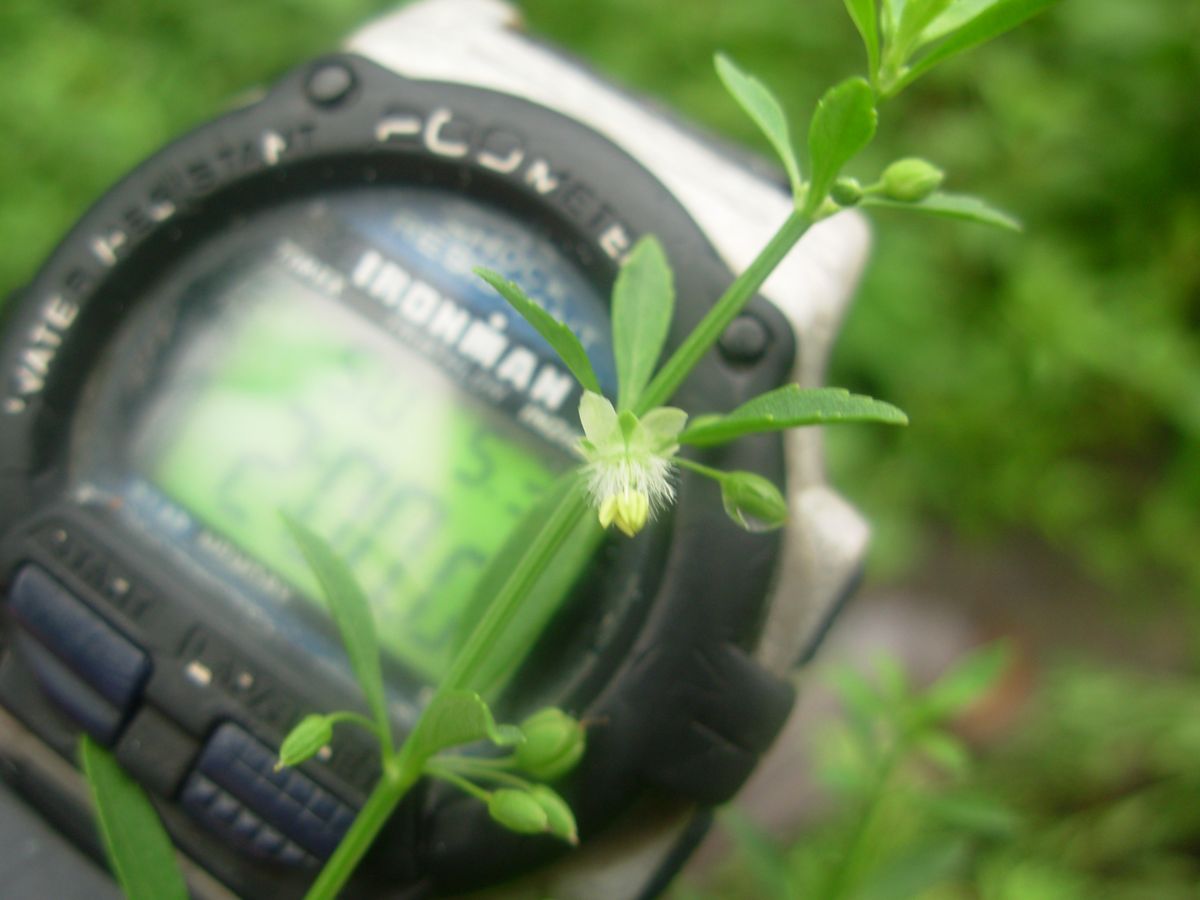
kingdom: Plantae
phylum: Tracheophyta
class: Magnoliopsida
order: Lamiales
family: Plantaginaceae
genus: Scoparia
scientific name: Scoparia dulcis
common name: Scoparia-weed
